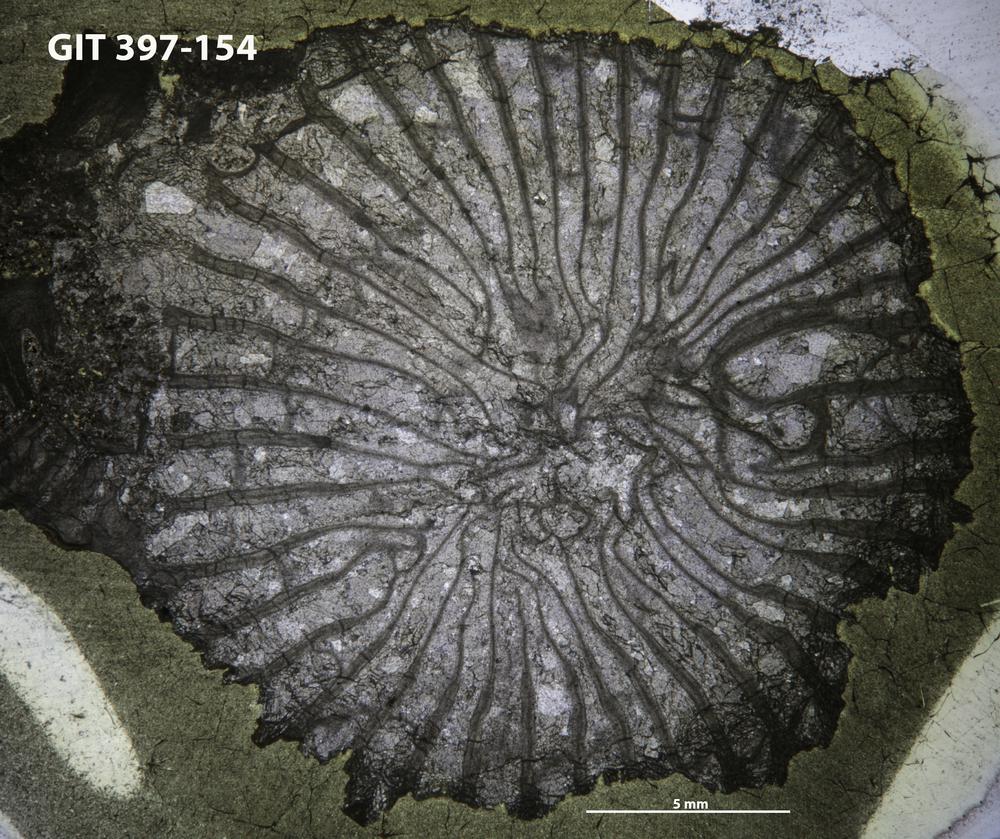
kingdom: Animalia
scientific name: Animalia
